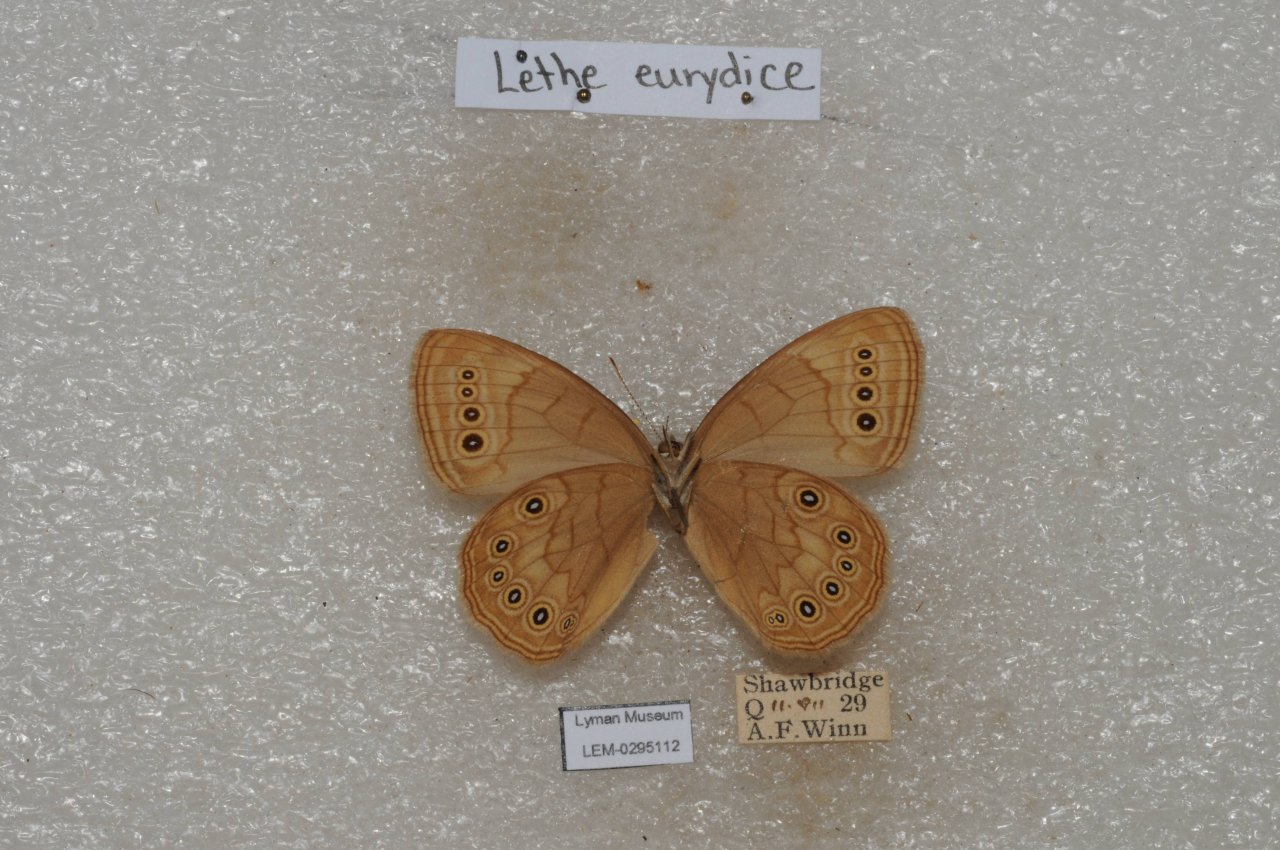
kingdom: Animalia
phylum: Arthropoda
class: Insecta
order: Lepidoptera
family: Nymphalidae
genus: Lethe
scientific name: Lethe eurydice
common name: Eyed Brown
